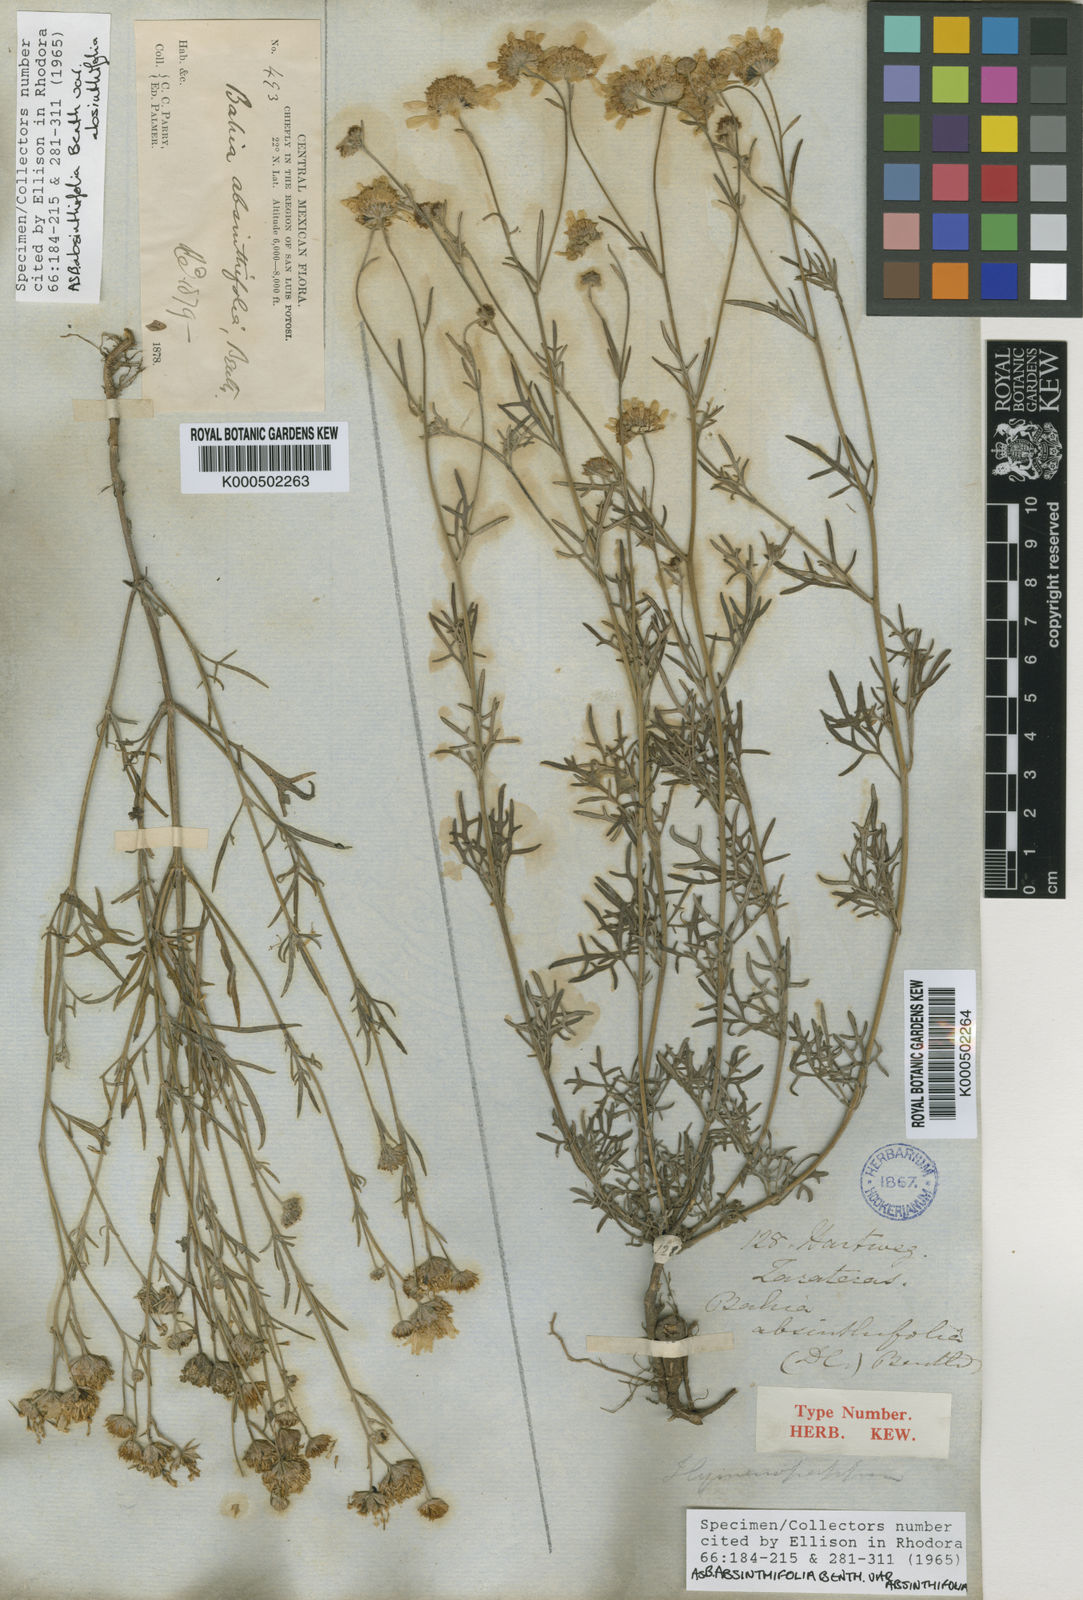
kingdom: Plantae
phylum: Tracheophyta
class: Magnoliopsida
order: Asterales
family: Asteraceae
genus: Picradeniopsis
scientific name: Picradeniopsis absinthifolia
